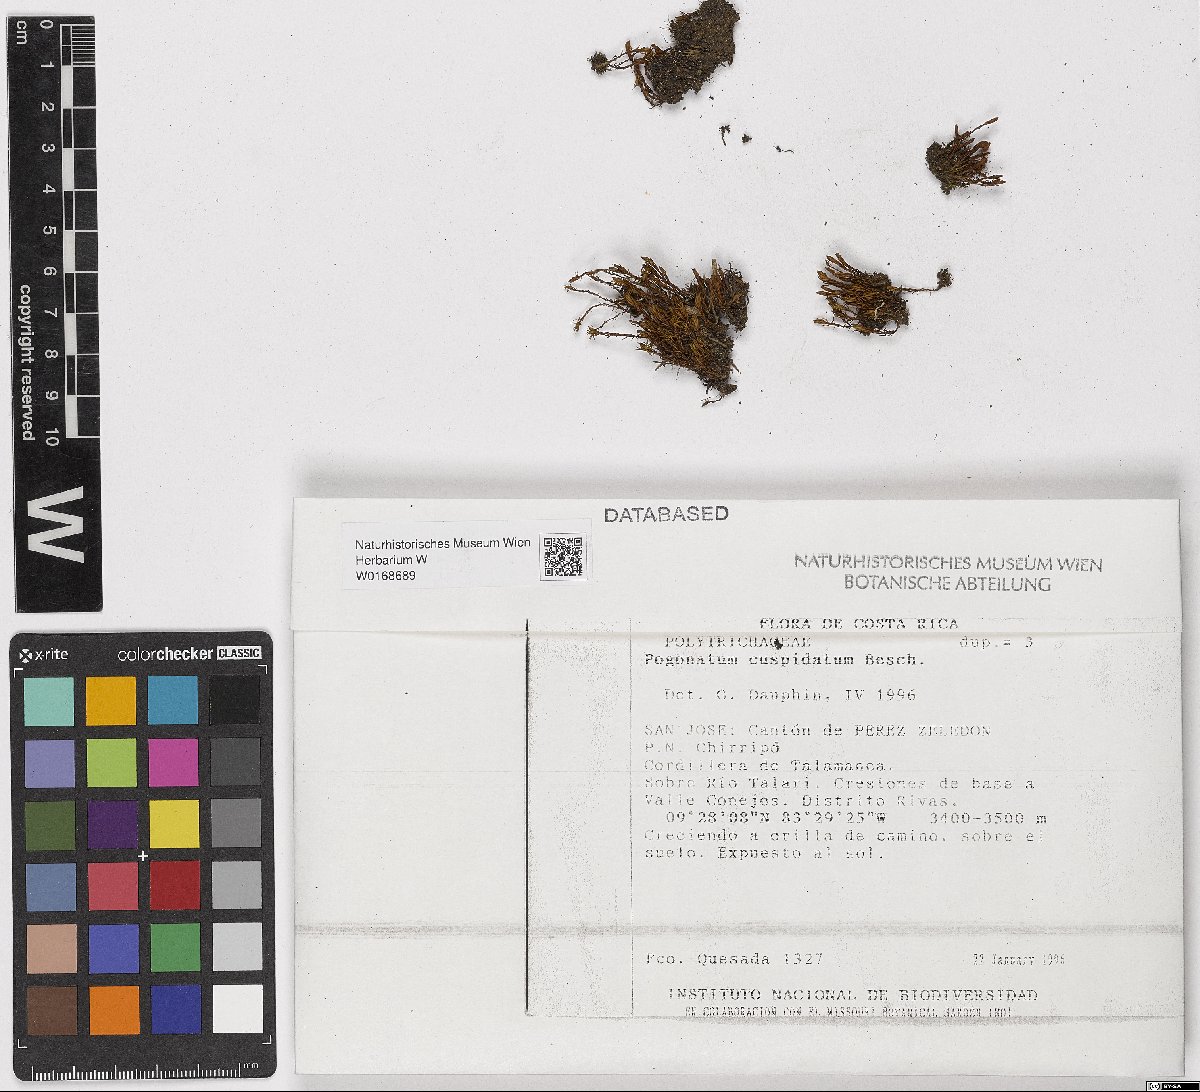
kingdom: Plantae
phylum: Bryophyta
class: Polytrichopsida
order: Polytrichales
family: Polytrichaceae
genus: Pogonatum
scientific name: Pogonatum jamesonii
